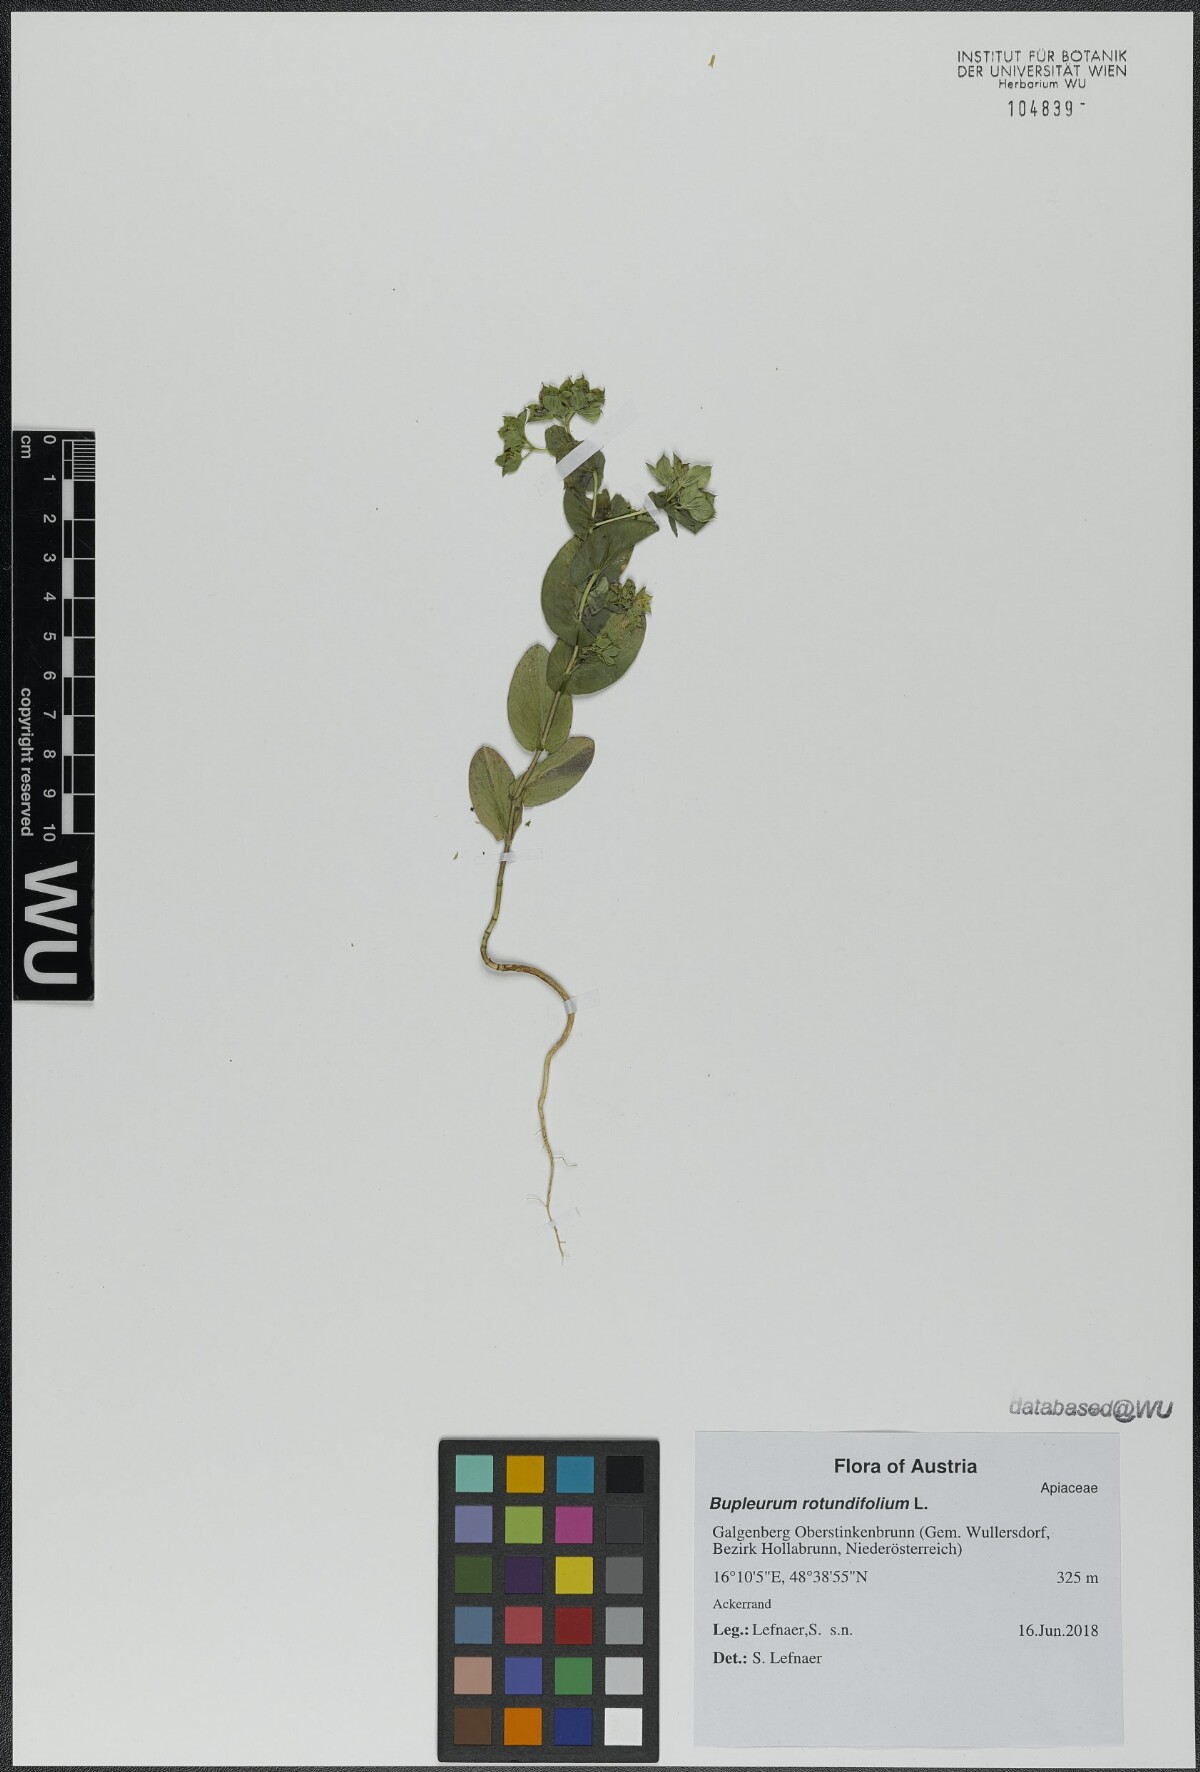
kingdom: Plantae
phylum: Tracheophyta
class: Magnoliopsida
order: Apiales
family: Apiaceae
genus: Bupleurum
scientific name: Bupleurum rotundifolium
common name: Thorow-wax
